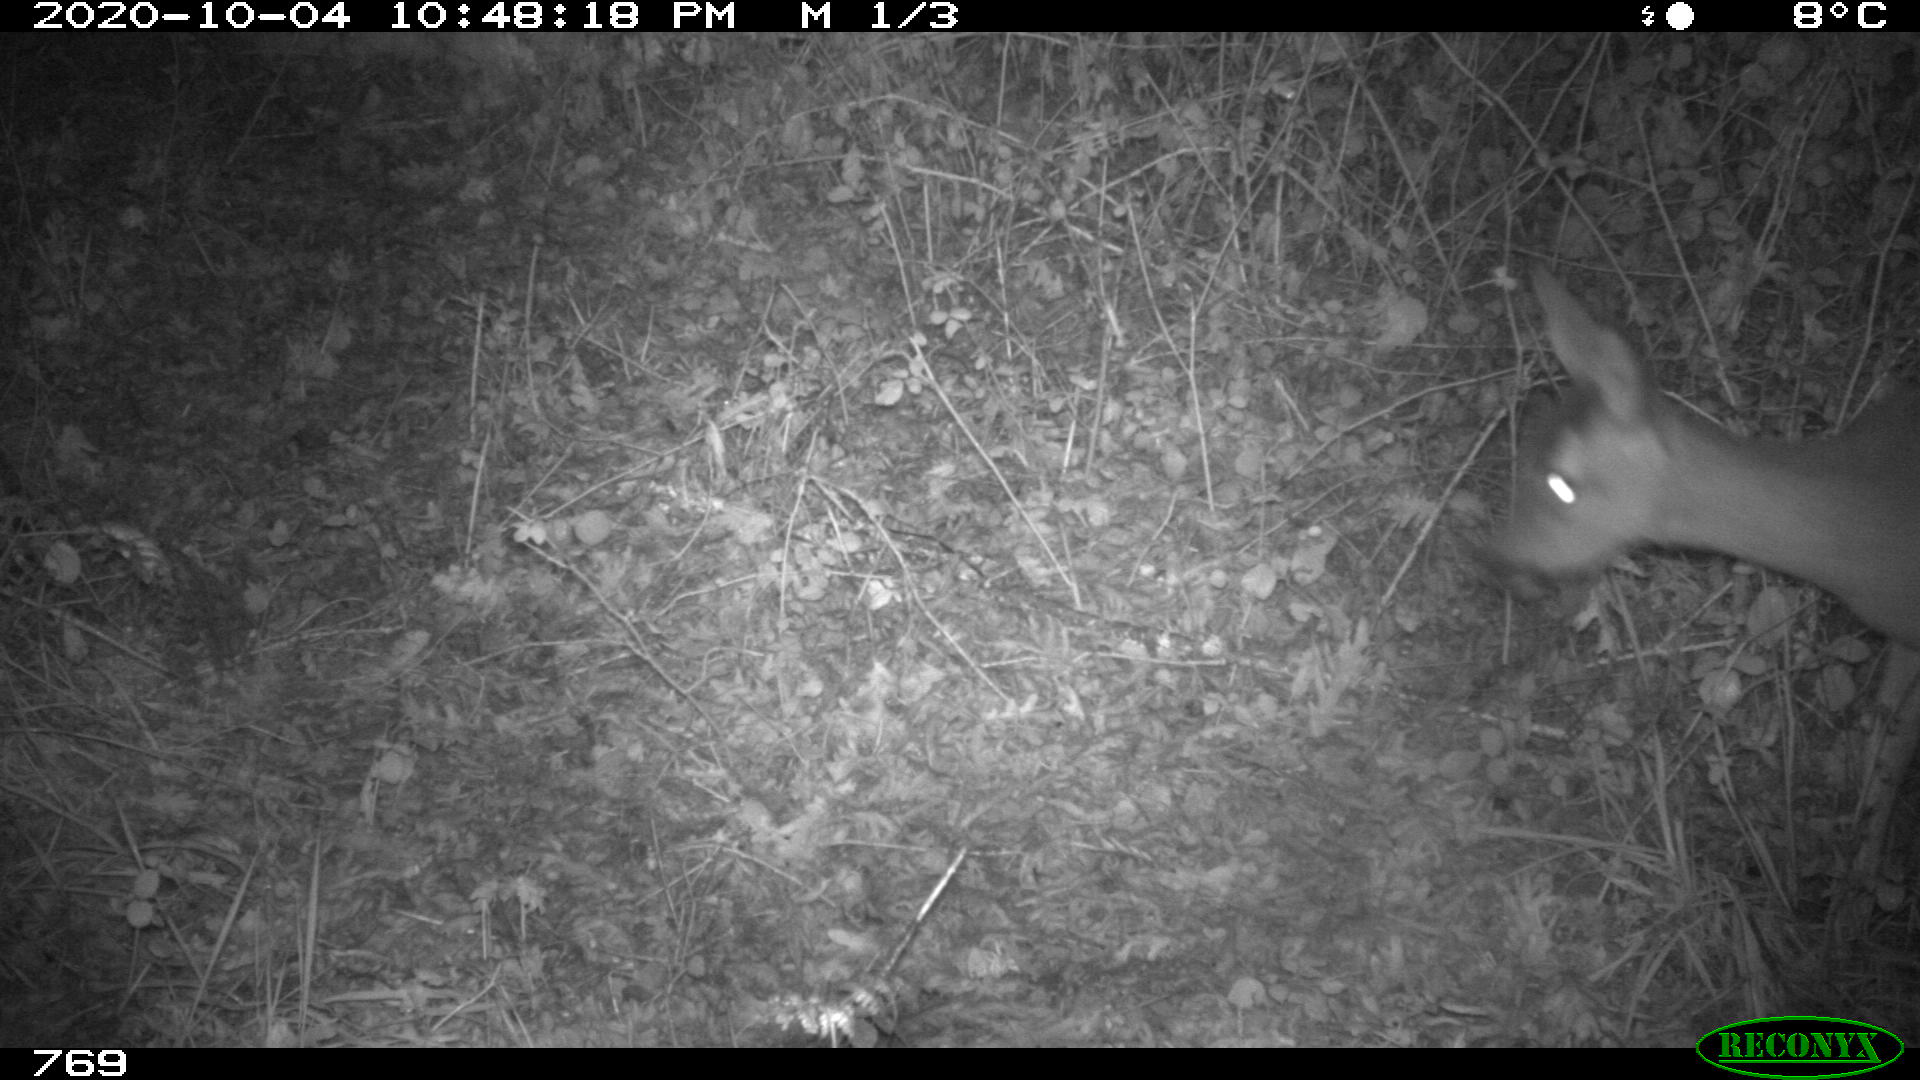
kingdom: Animalia
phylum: Chordata
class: Mammalia
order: Artiodactyla
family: Cervidae
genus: Capreolus
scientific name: Capreolus capreolus
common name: Western roe deer
